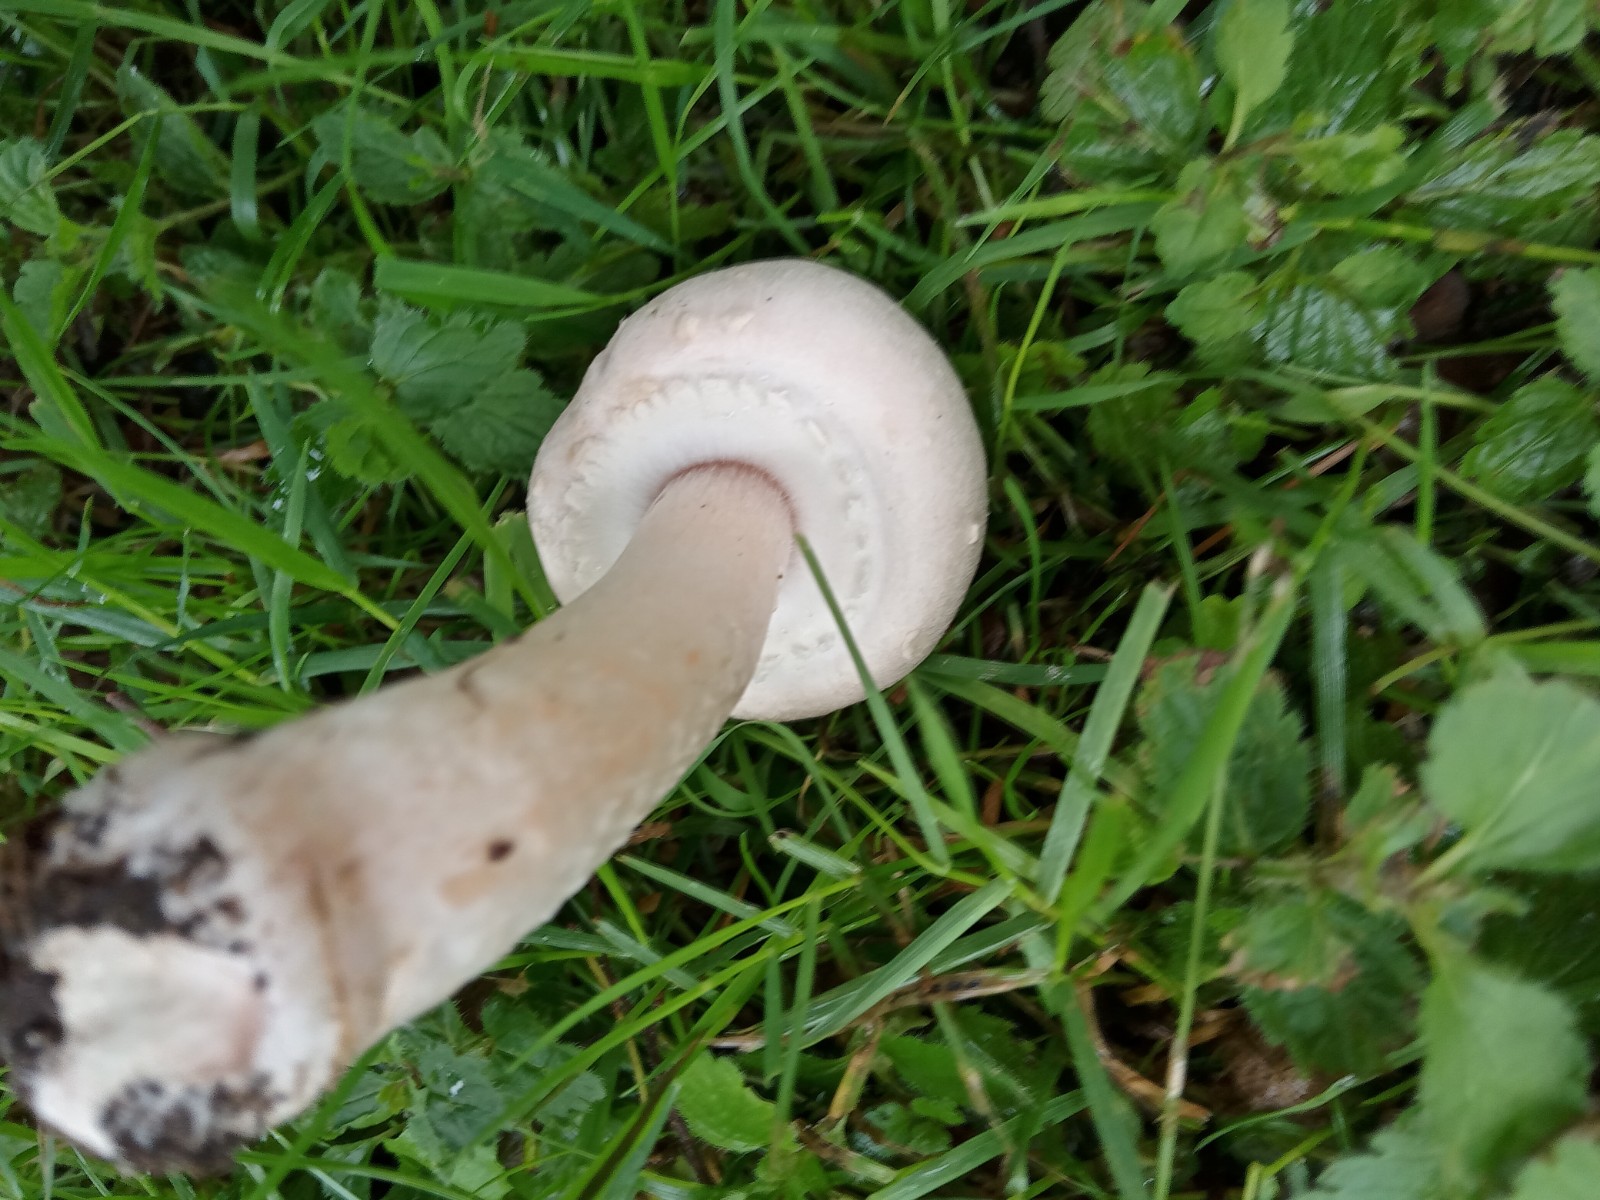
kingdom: Fungi
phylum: Basidiomycota
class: Agaricomycetes
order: Agaricales
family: Agaricaceae
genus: Agaricus
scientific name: Agaricus arvensis
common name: ager-champignon
